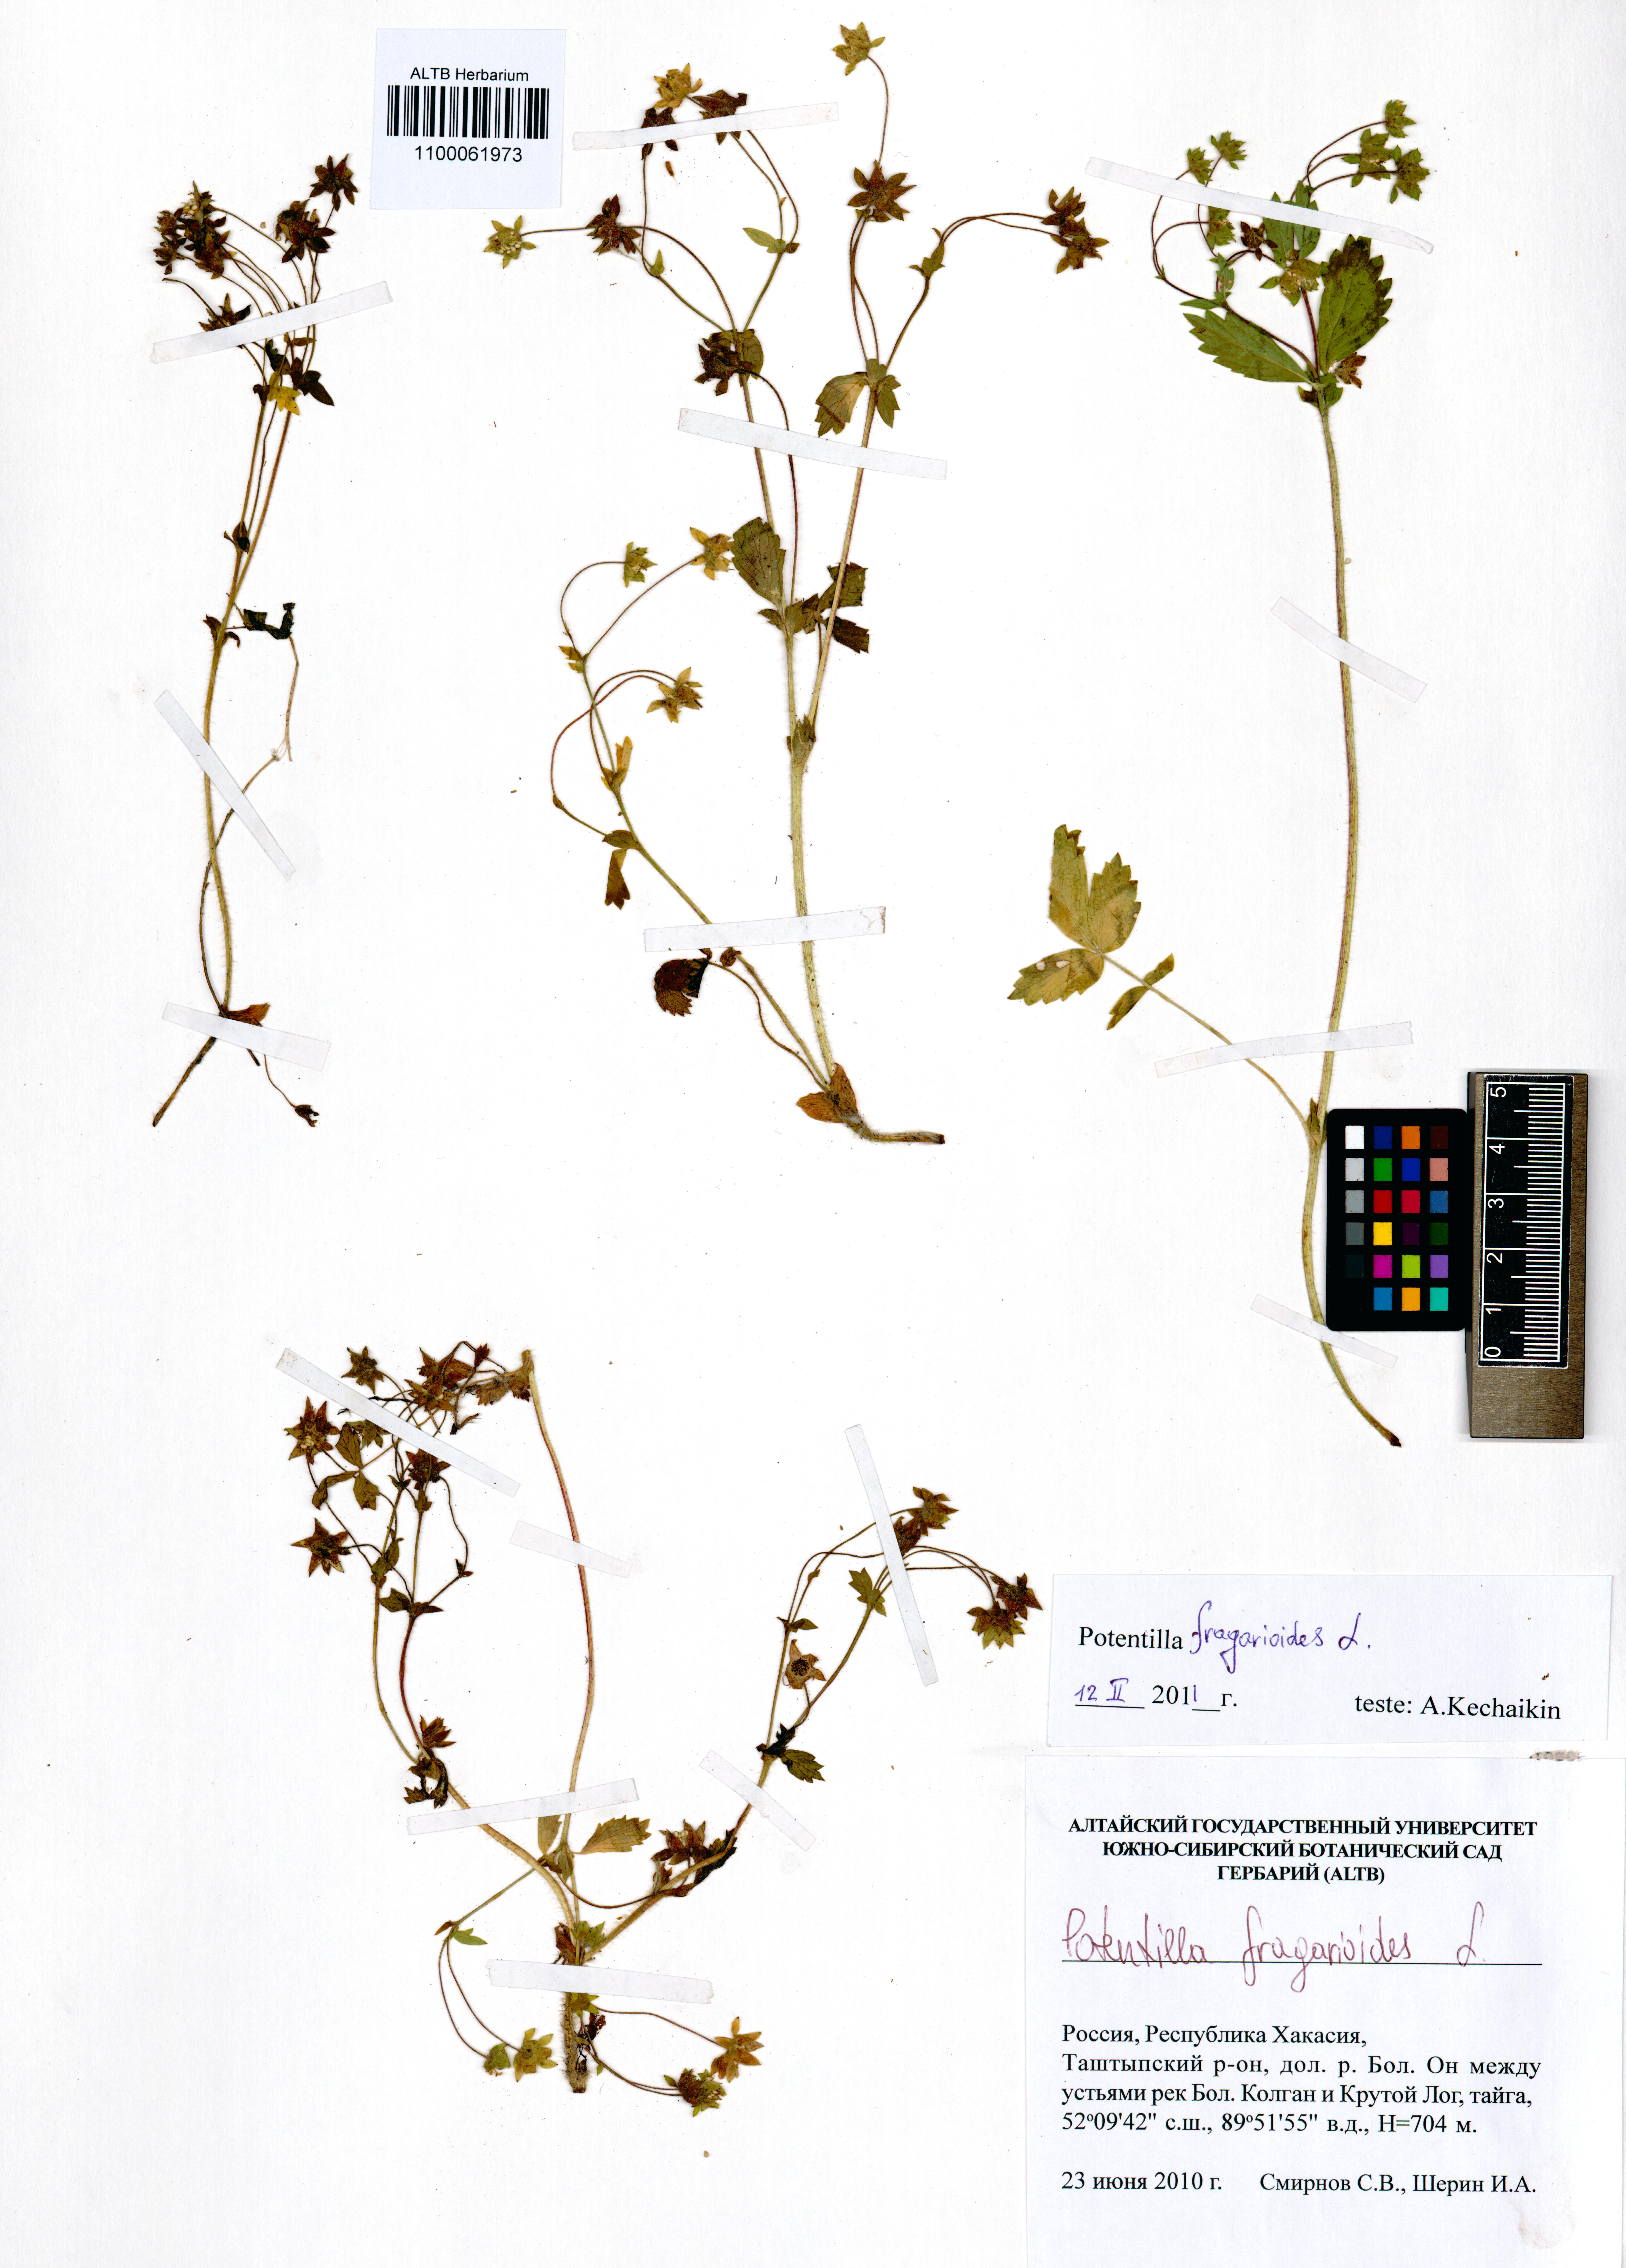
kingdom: Plantae
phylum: Tracheophyta
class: Magnoliopsida
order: Rosales
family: Rosaceae
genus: Potentilla
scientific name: Potentilla fragarioides
